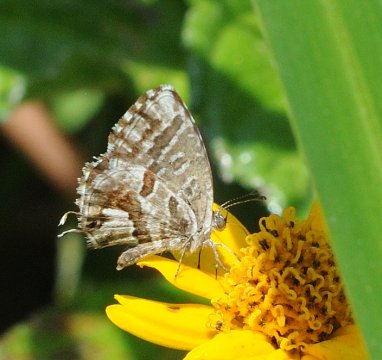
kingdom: Animalia
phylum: Arthropoda
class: Insecta
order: Lepidoptera
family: Lycaenidae
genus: Cacyreus
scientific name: Cacyreus marshalli
